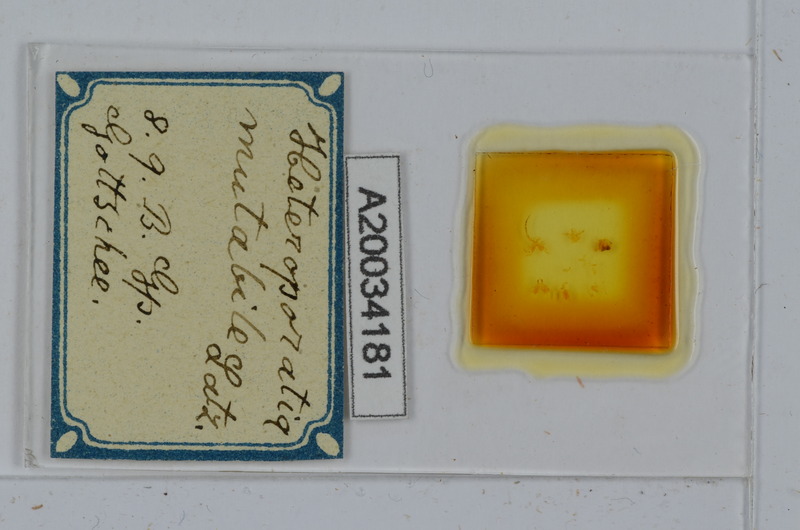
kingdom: Animalia
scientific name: Animalia
